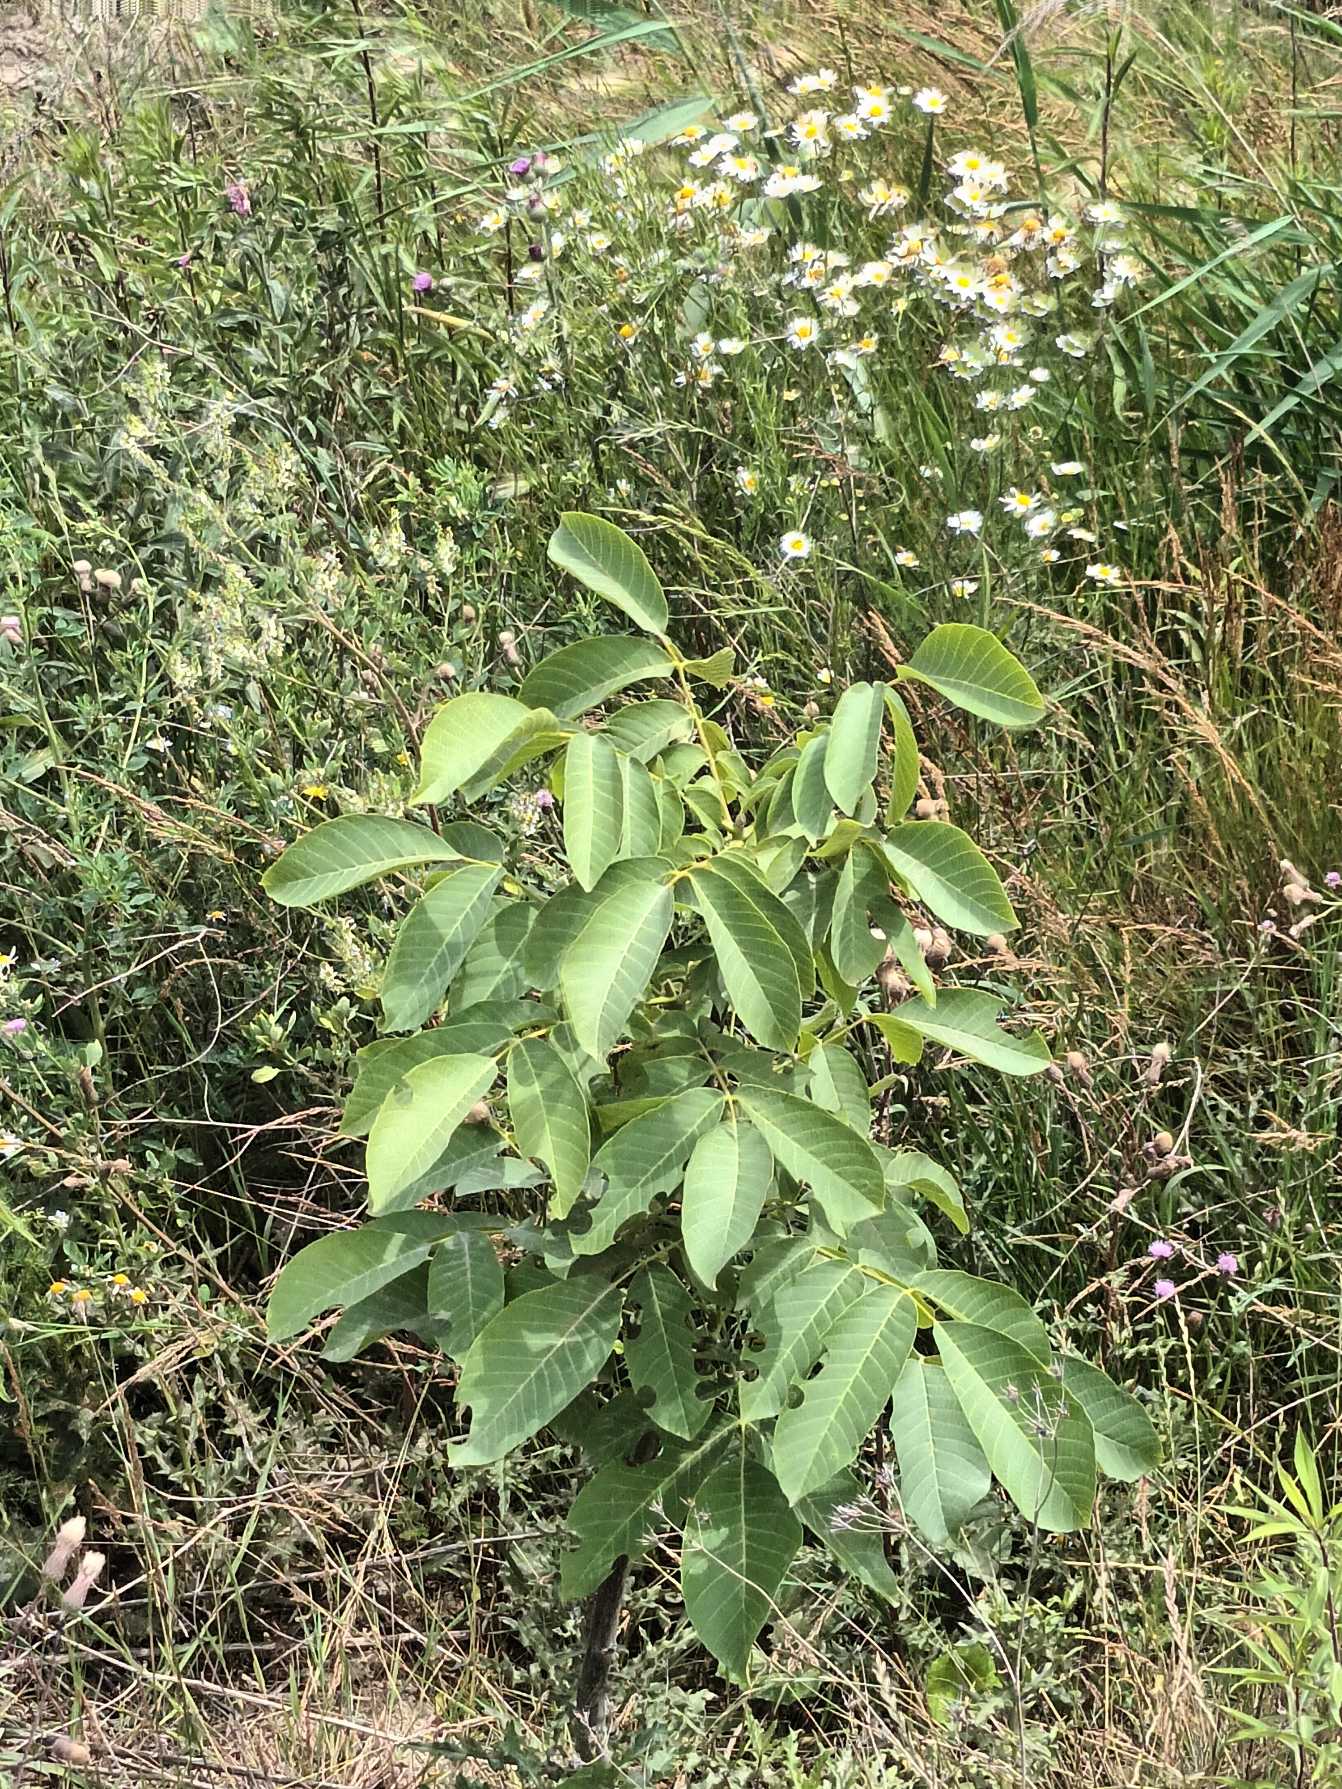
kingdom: Plantae
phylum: Tracheophyta
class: Magnoliopsida
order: Fagales
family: Juglandaceae
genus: Juglans
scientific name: Juglans regia
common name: Almindelig valnød
